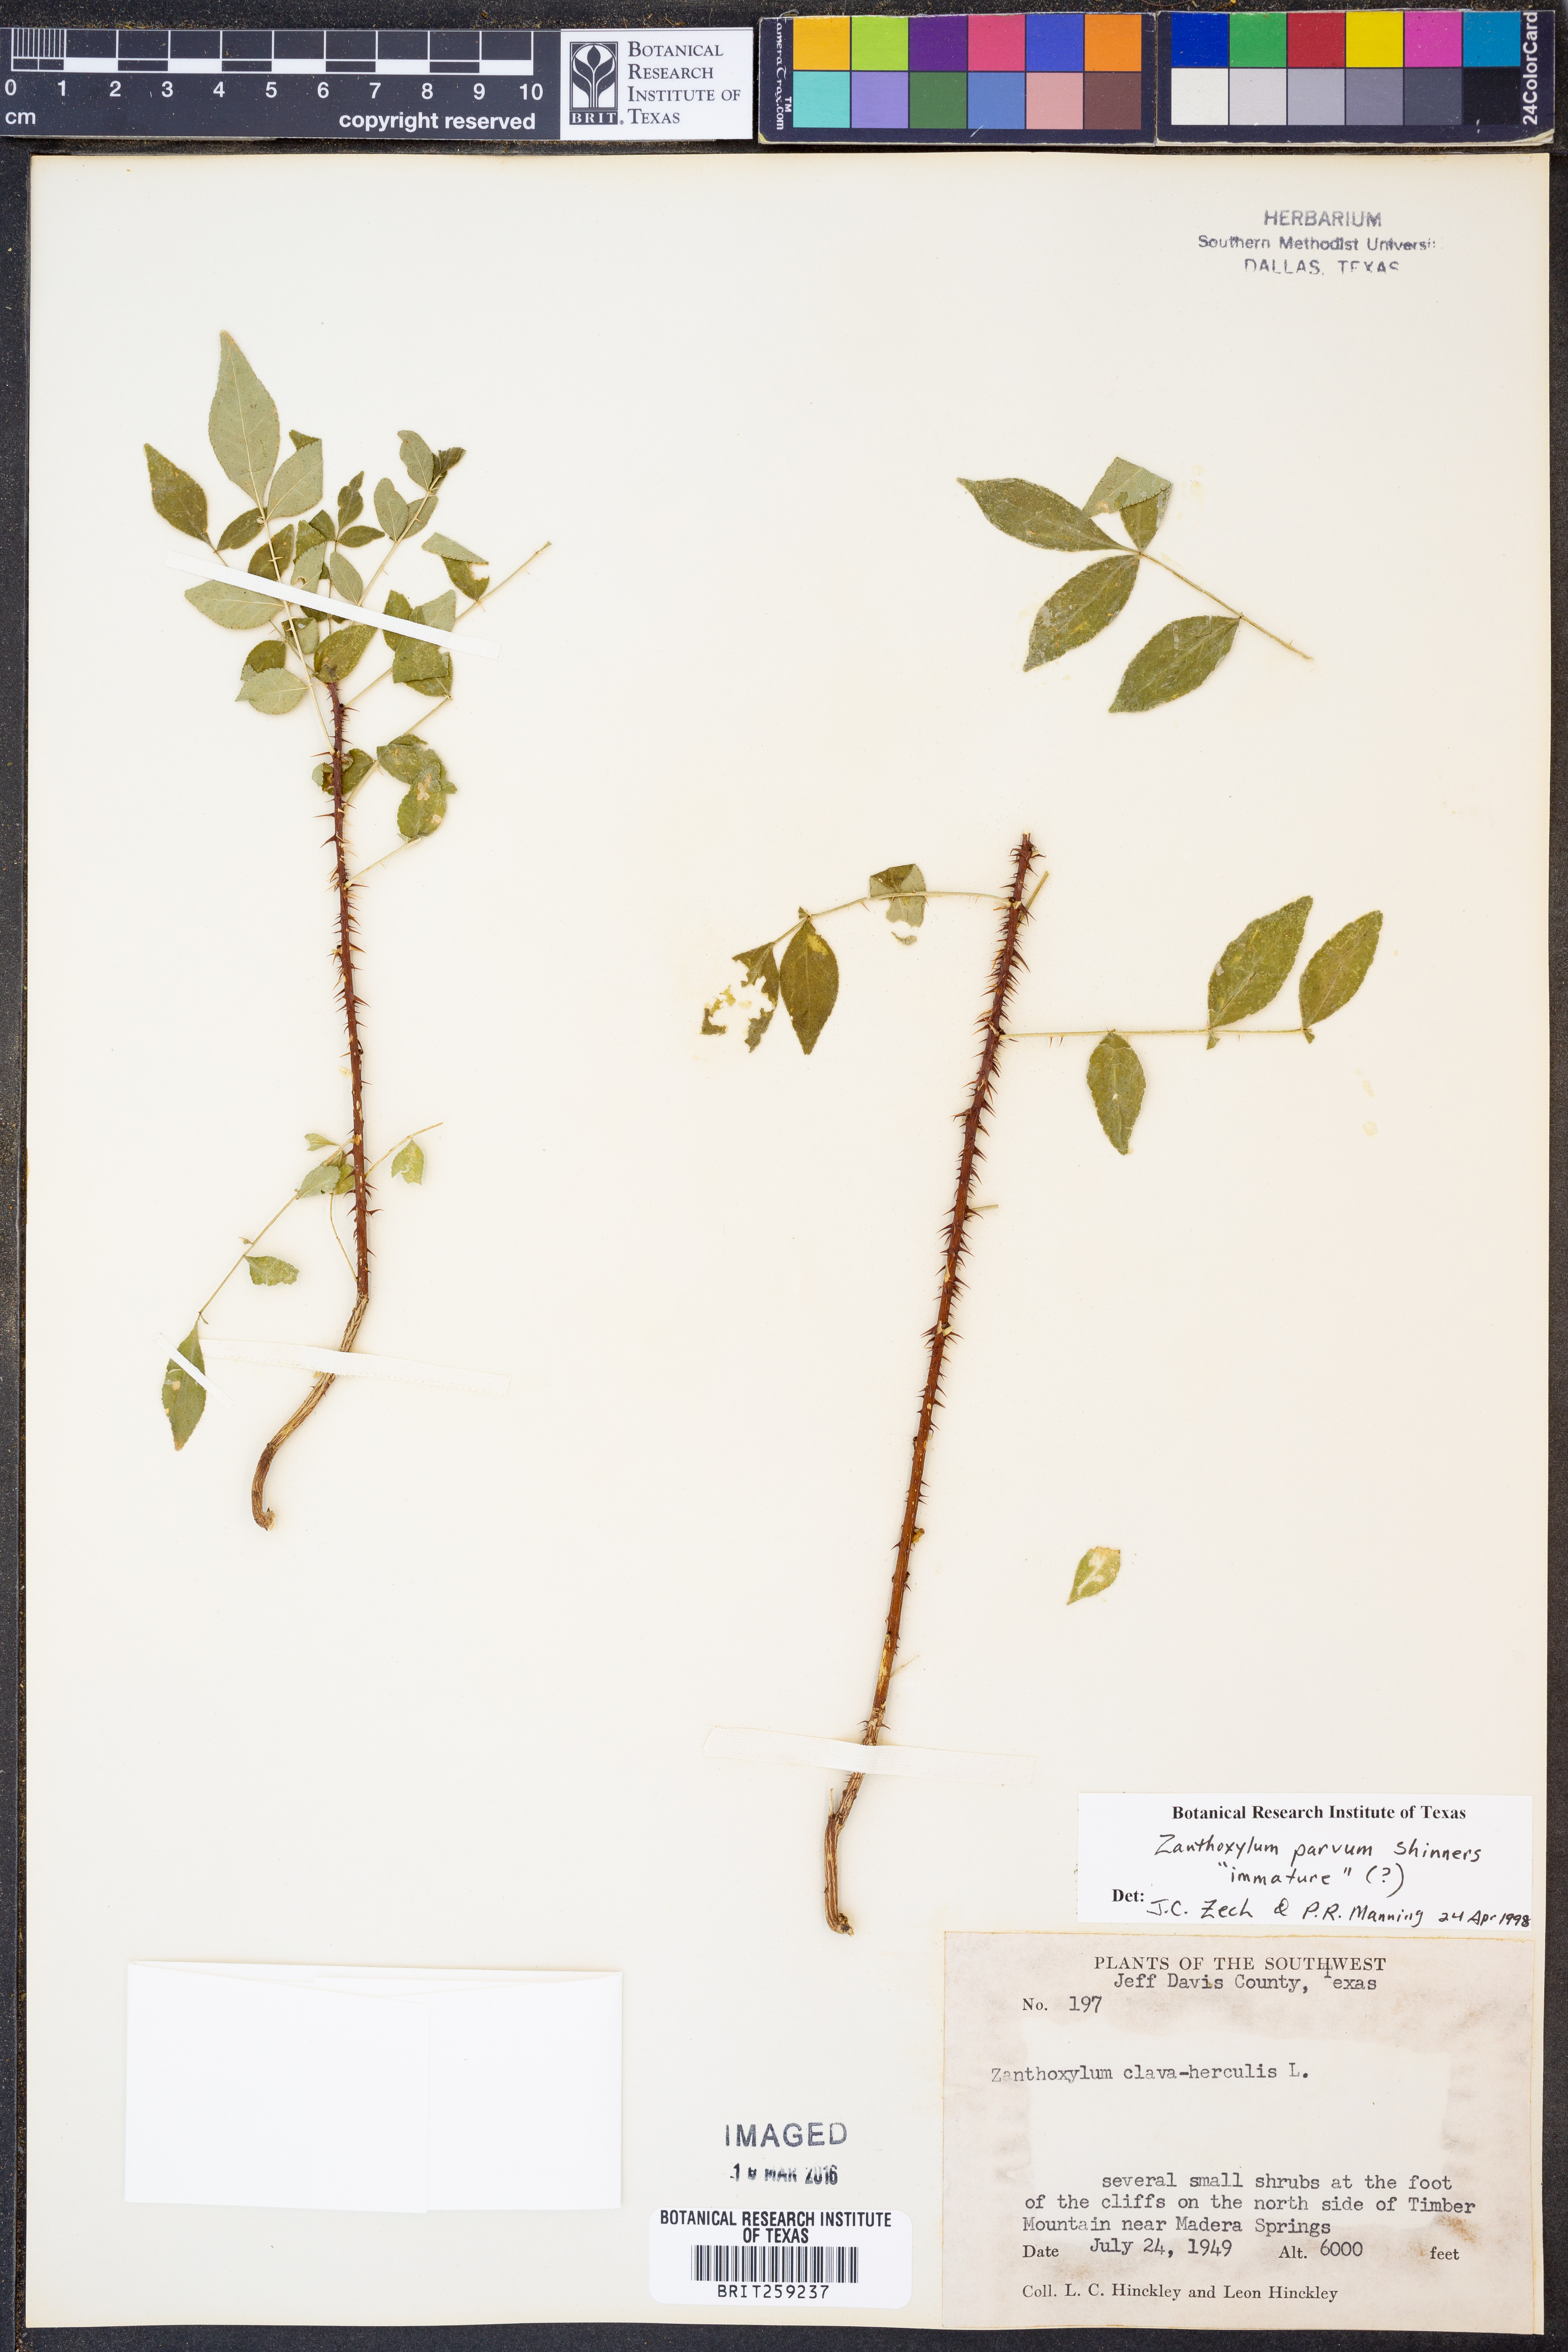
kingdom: Plantae
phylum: Tracheophyta
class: Magnoliopsida
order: Sapindales
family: Rutaceae
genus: Zanthoxylum
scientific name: Zanthoxylum parvum
